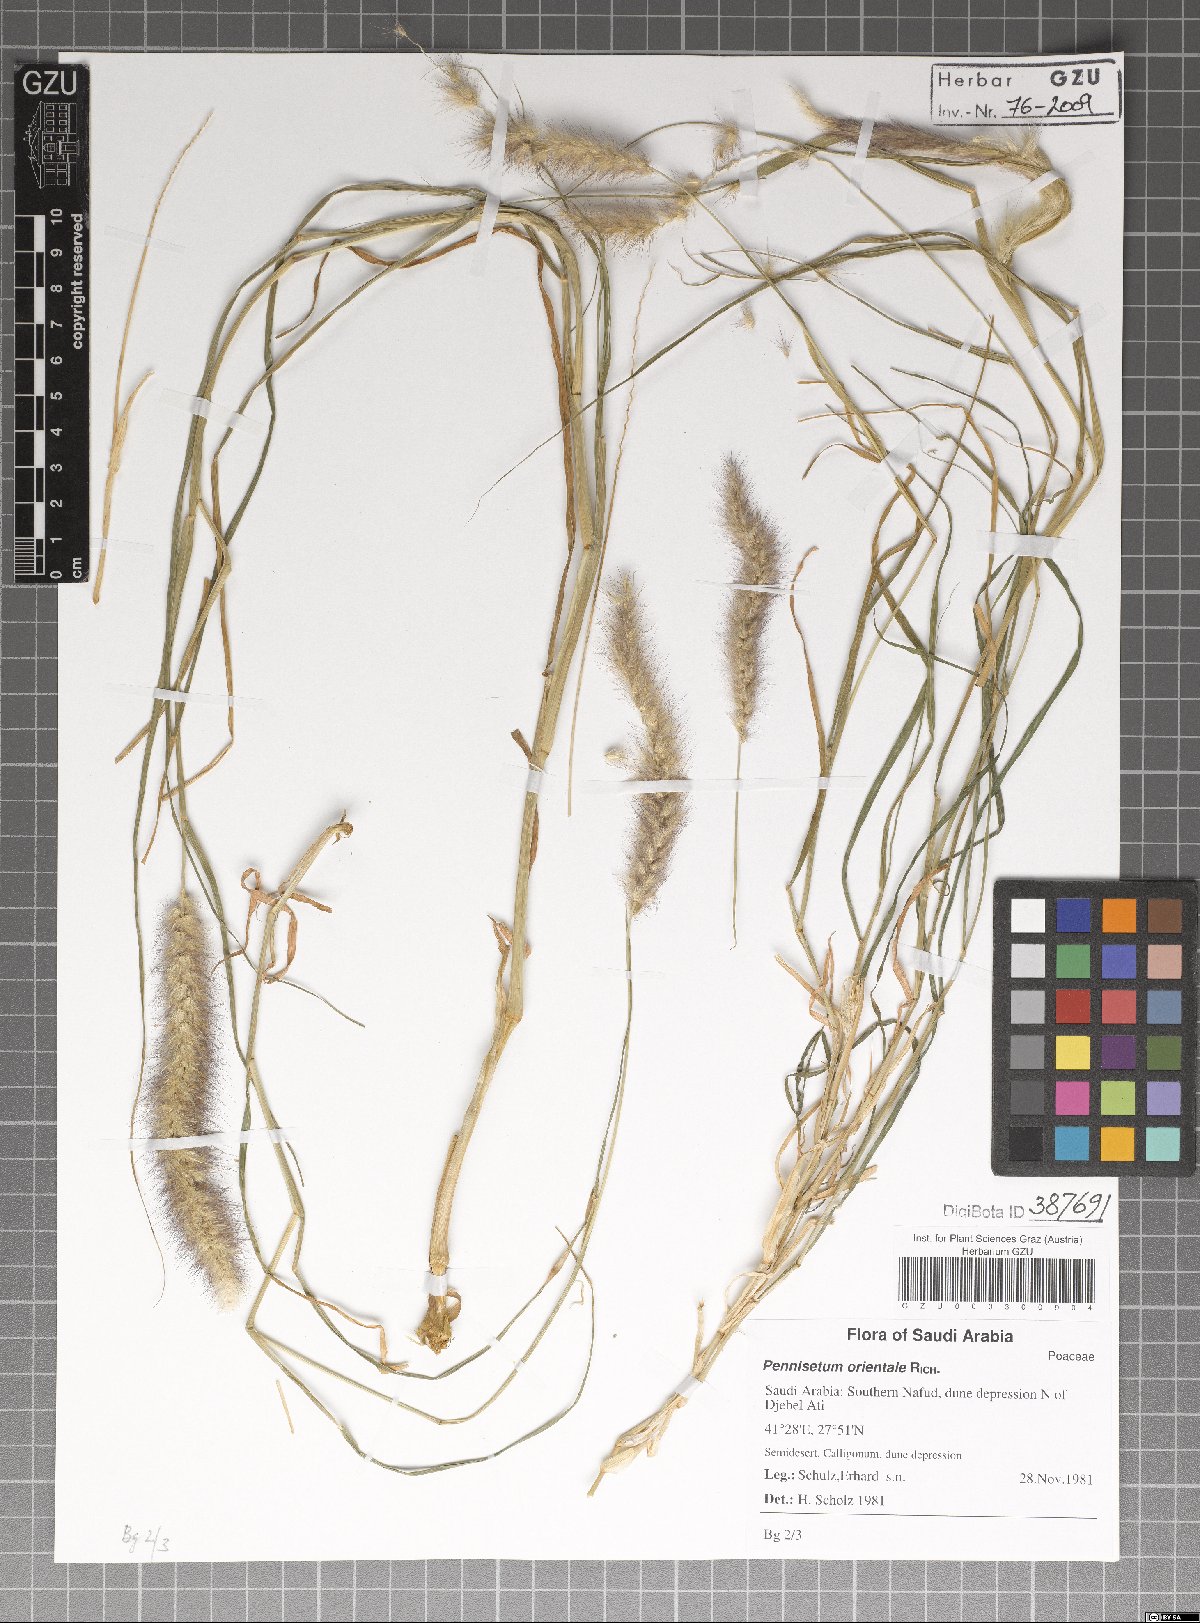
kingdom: Plantae
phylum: Tracheophyta
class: Liliopsida
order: Poales
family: Poaceae
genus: Cenchrus
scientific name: Cenchrus orientalis
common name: Oriental fountain grass
